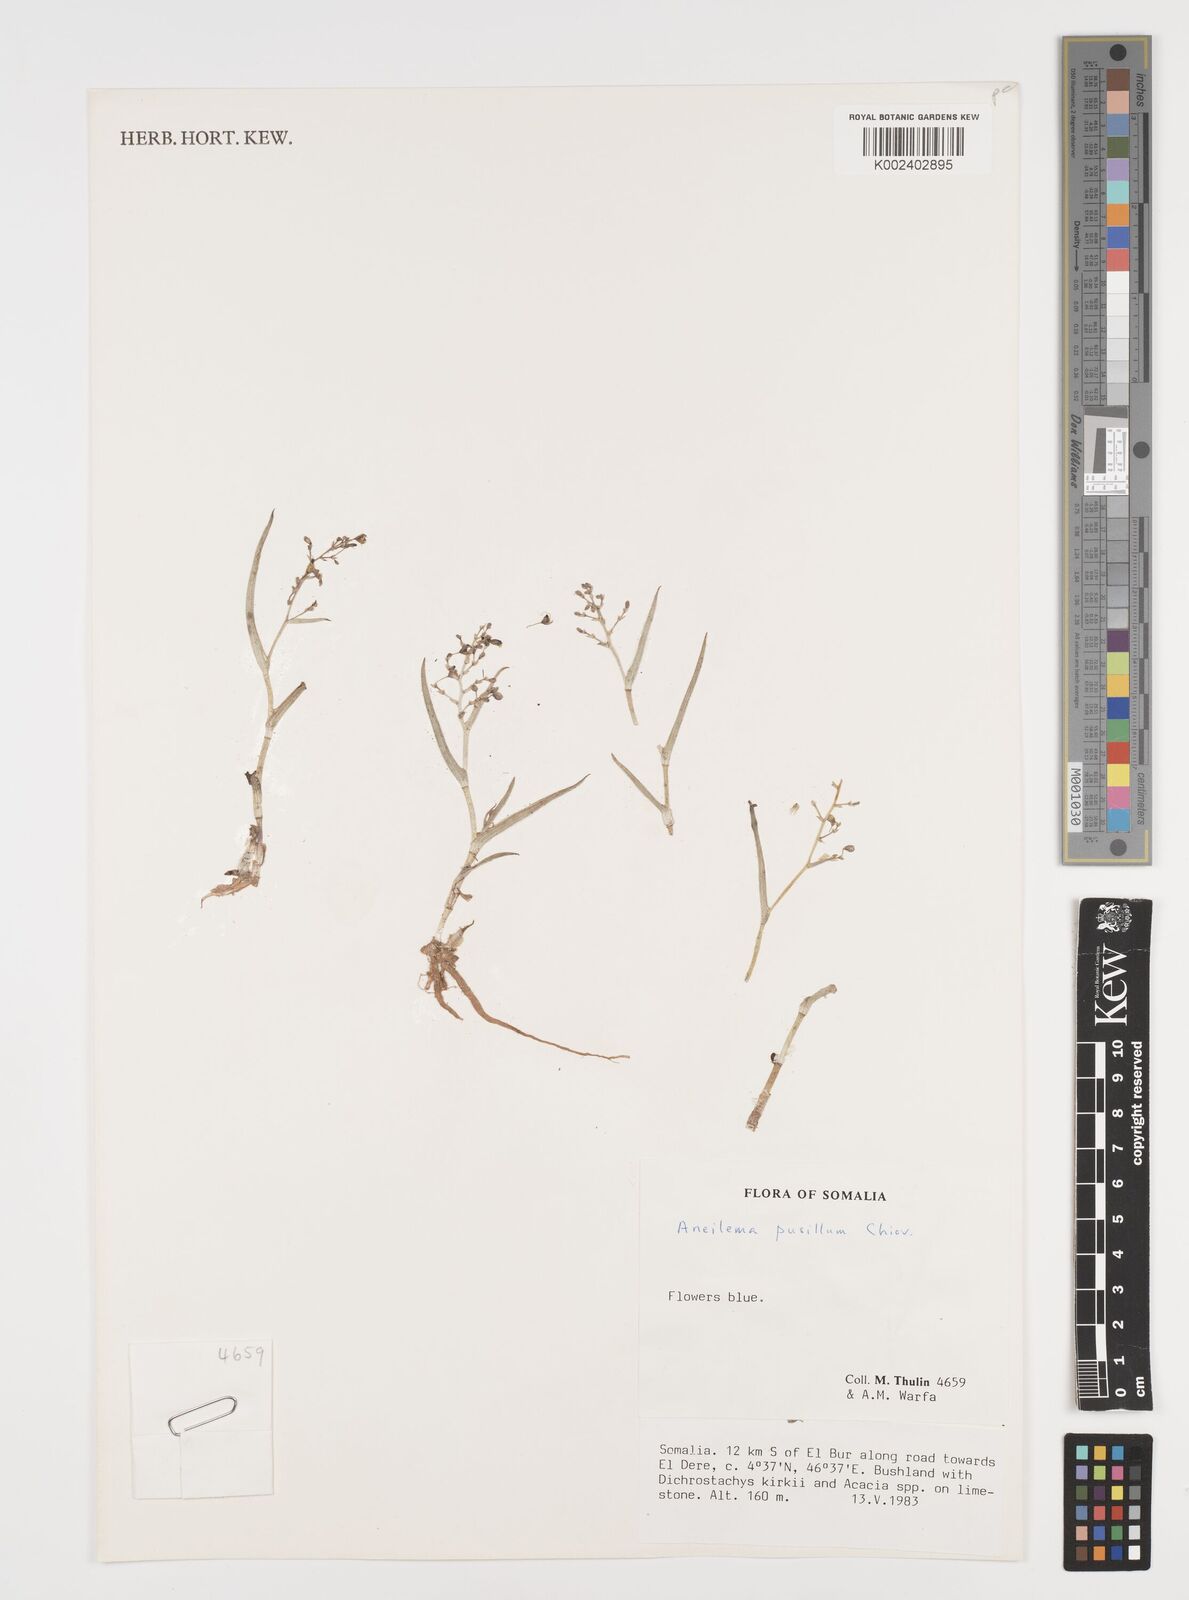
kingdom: Plantae
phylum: Tracheophyta
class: Liliopsida
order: Commelinales
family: Commelinaceae
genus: Aneilema
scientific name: Aneilema pusillum
